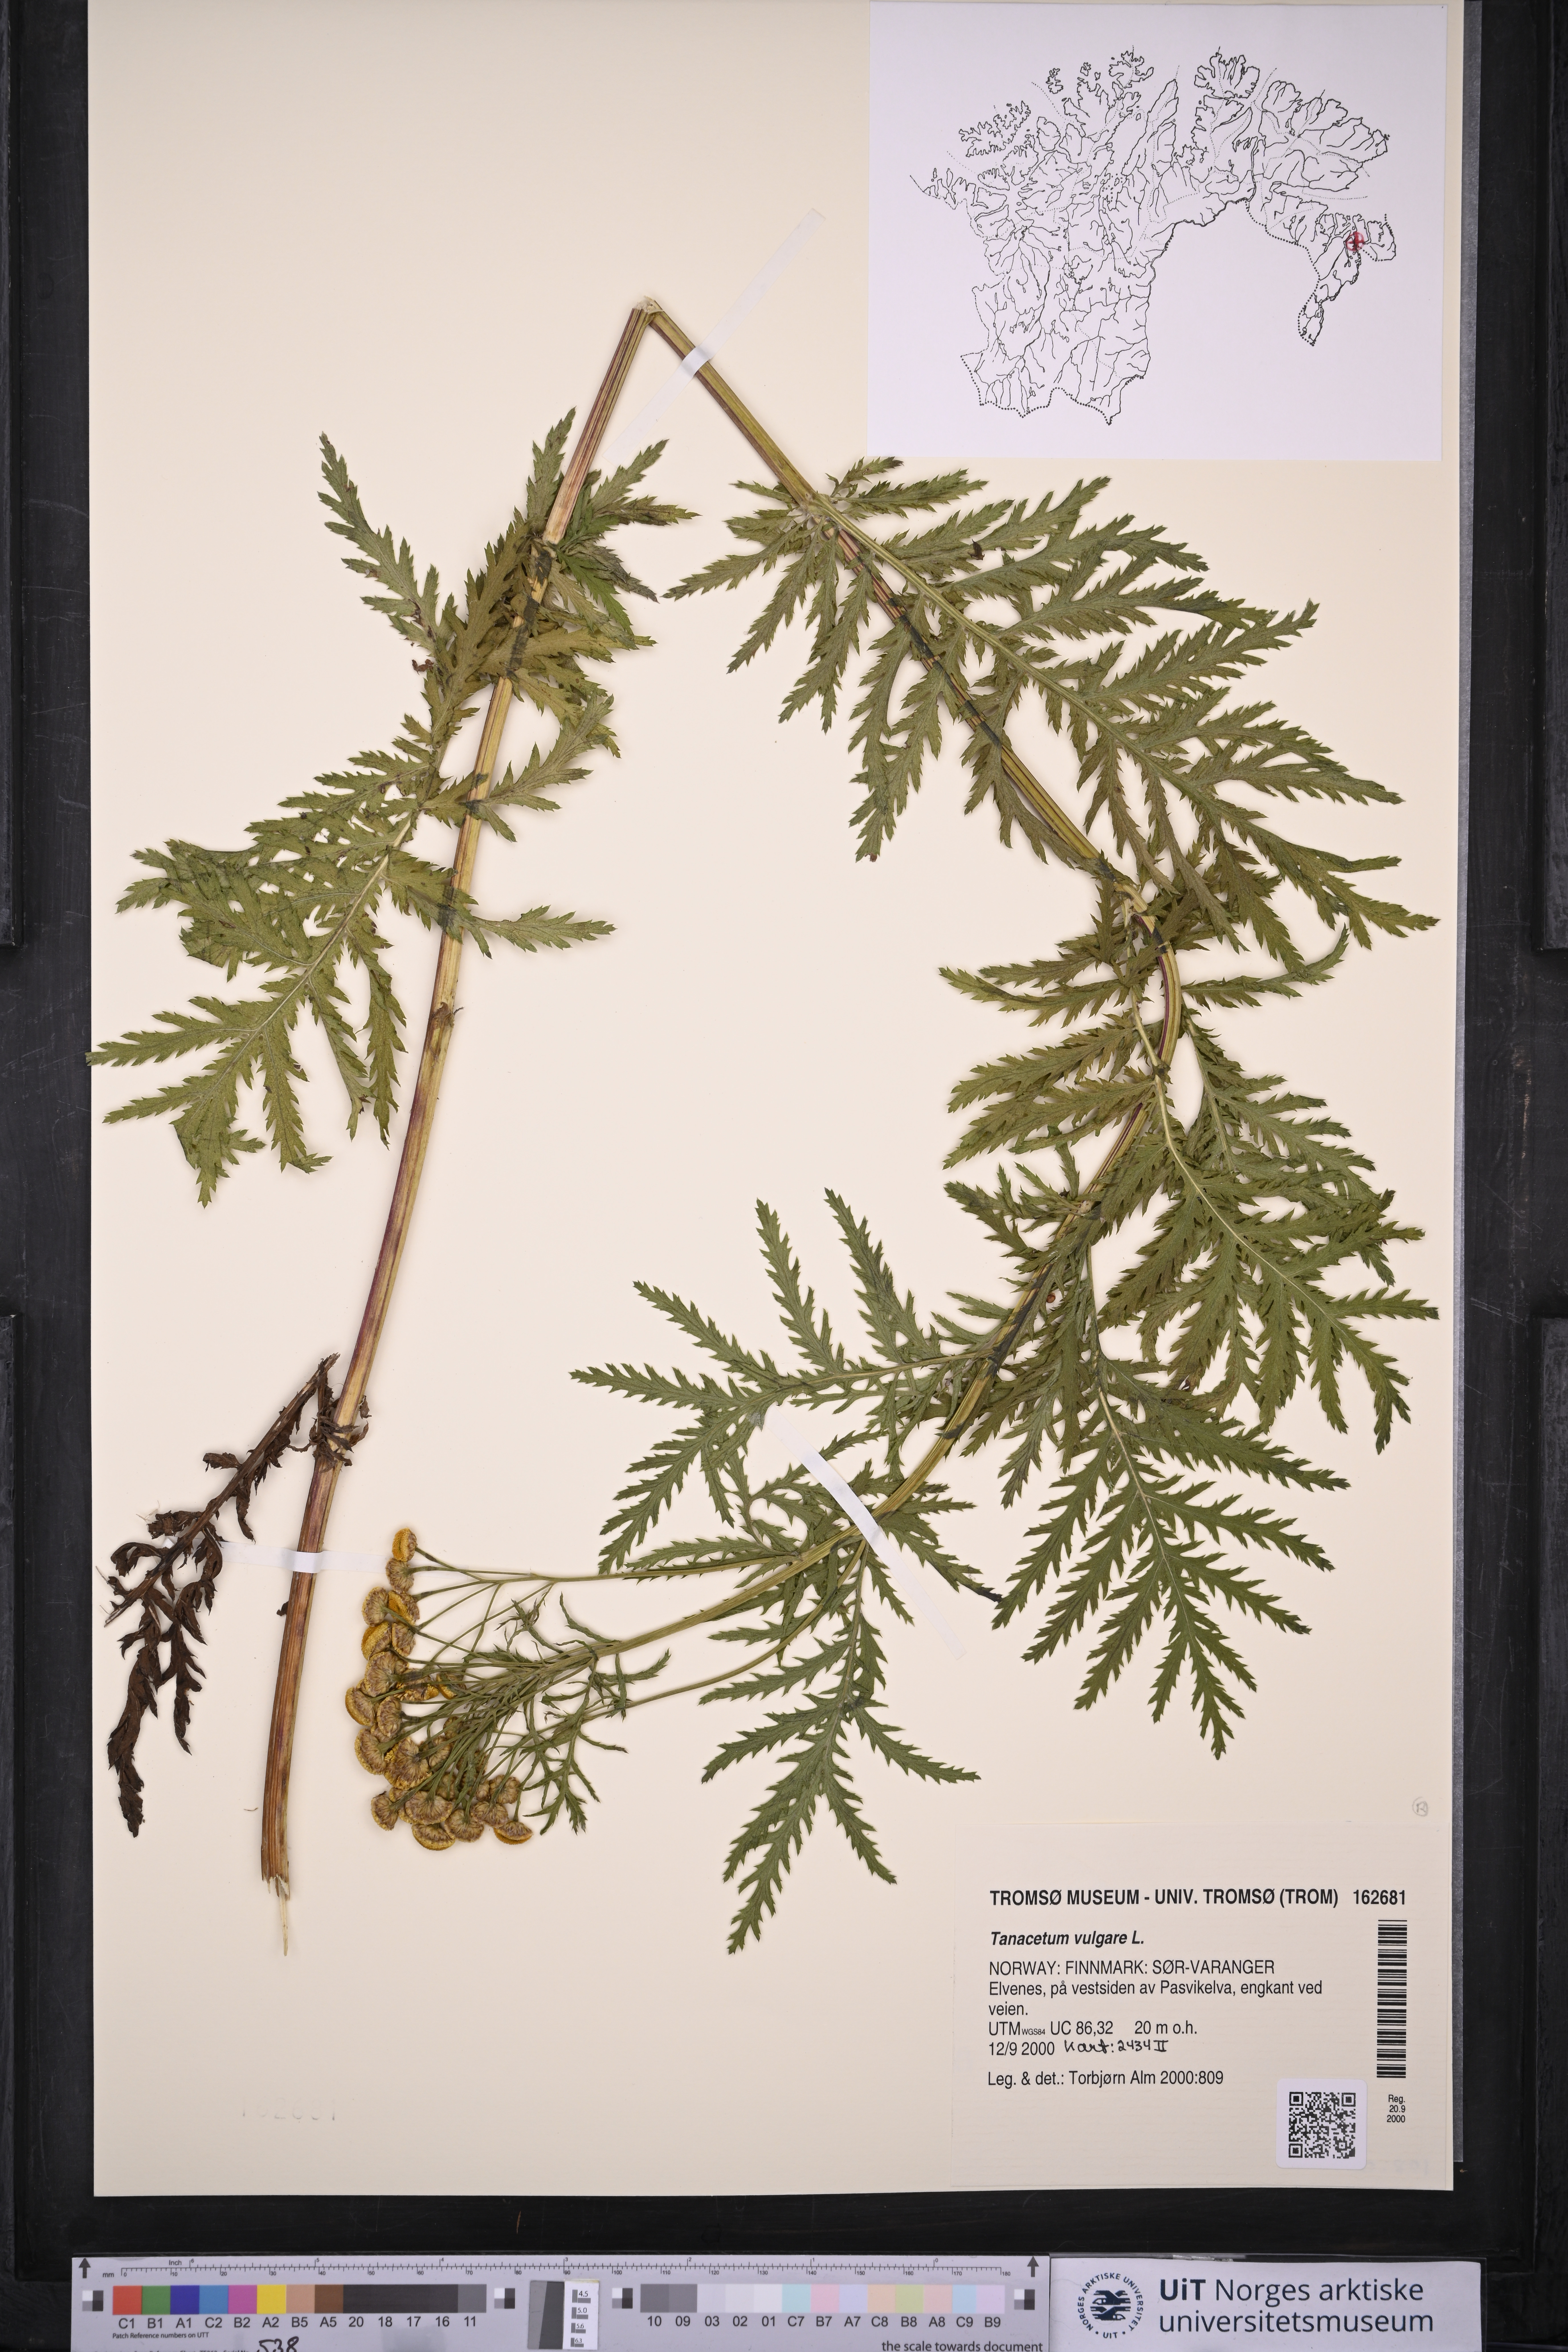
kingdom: Plantae
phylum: Tracheophyta
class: Magnoliopsida
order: Asterales
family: Asteraceae
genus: Tanacetum
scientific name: Tanacetum vulgare
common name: Common tansy
